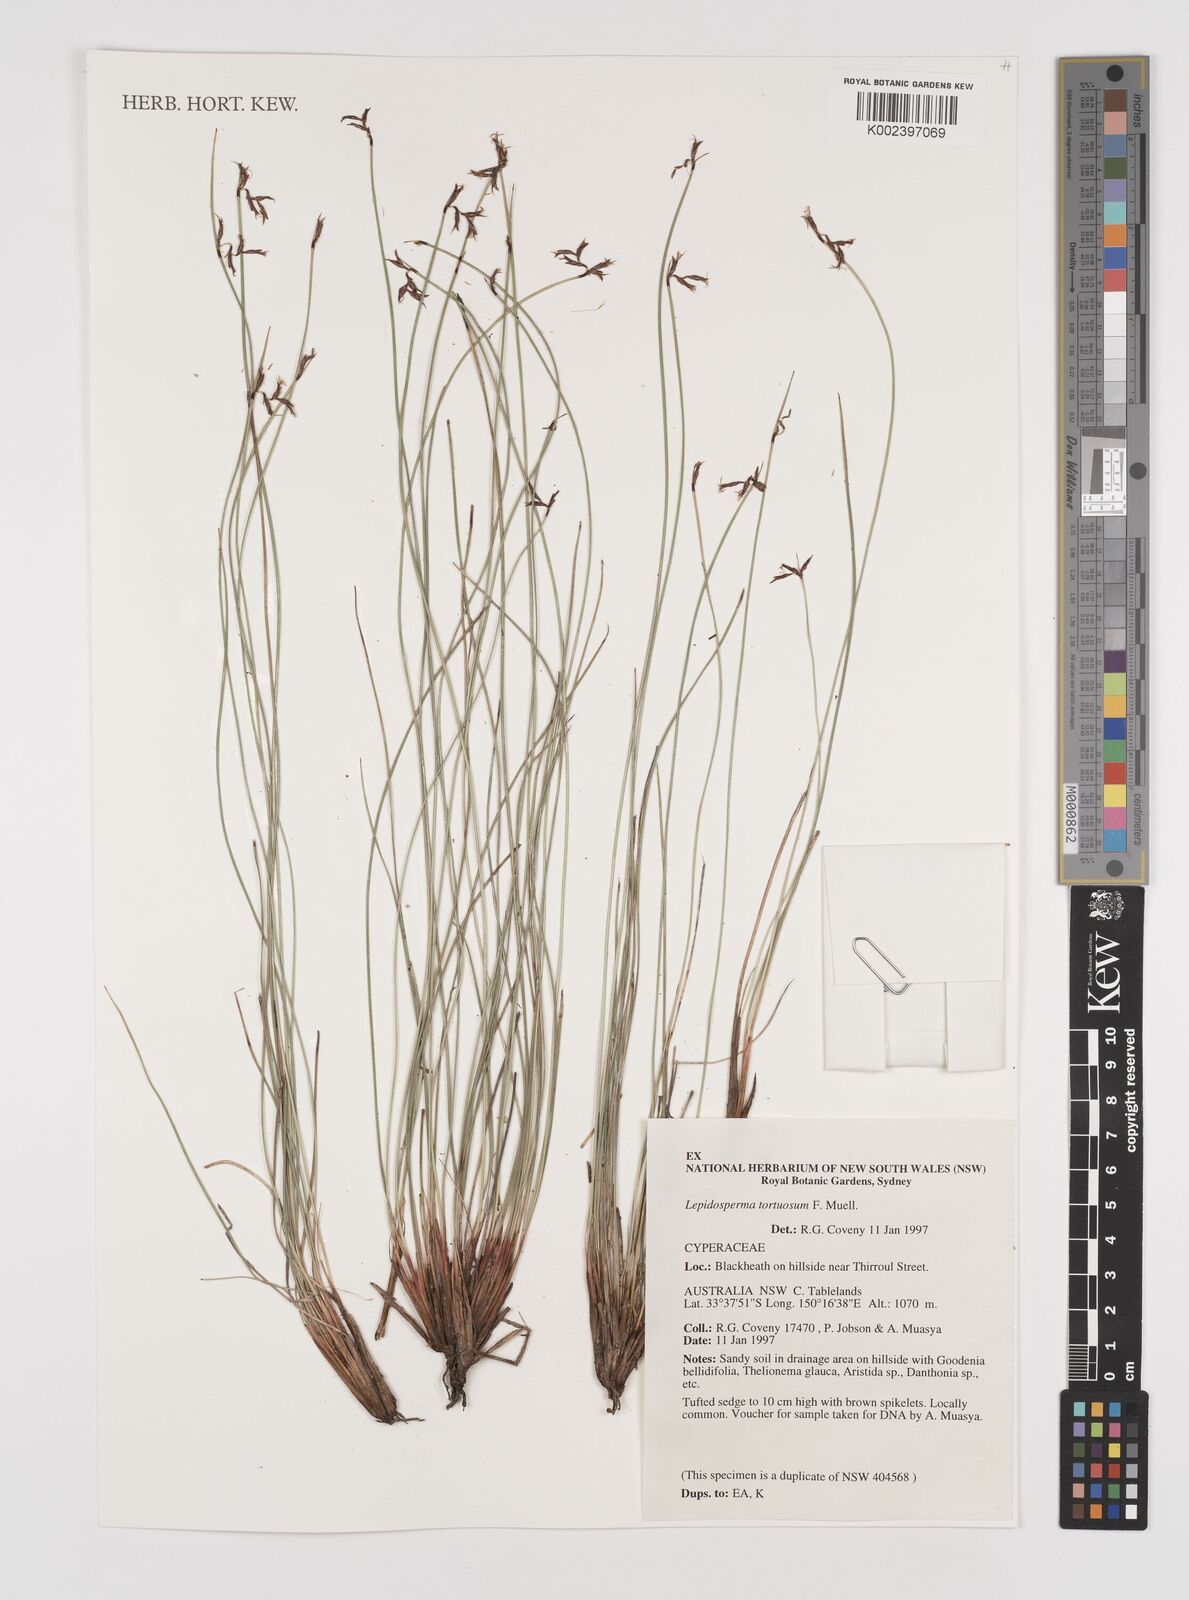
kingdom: Plantae
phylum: Tracheophyta
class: Liliopsida
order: Poales
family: Cyperaceae
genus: Lepidosperma
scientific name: Lepidosperma tortuosum
